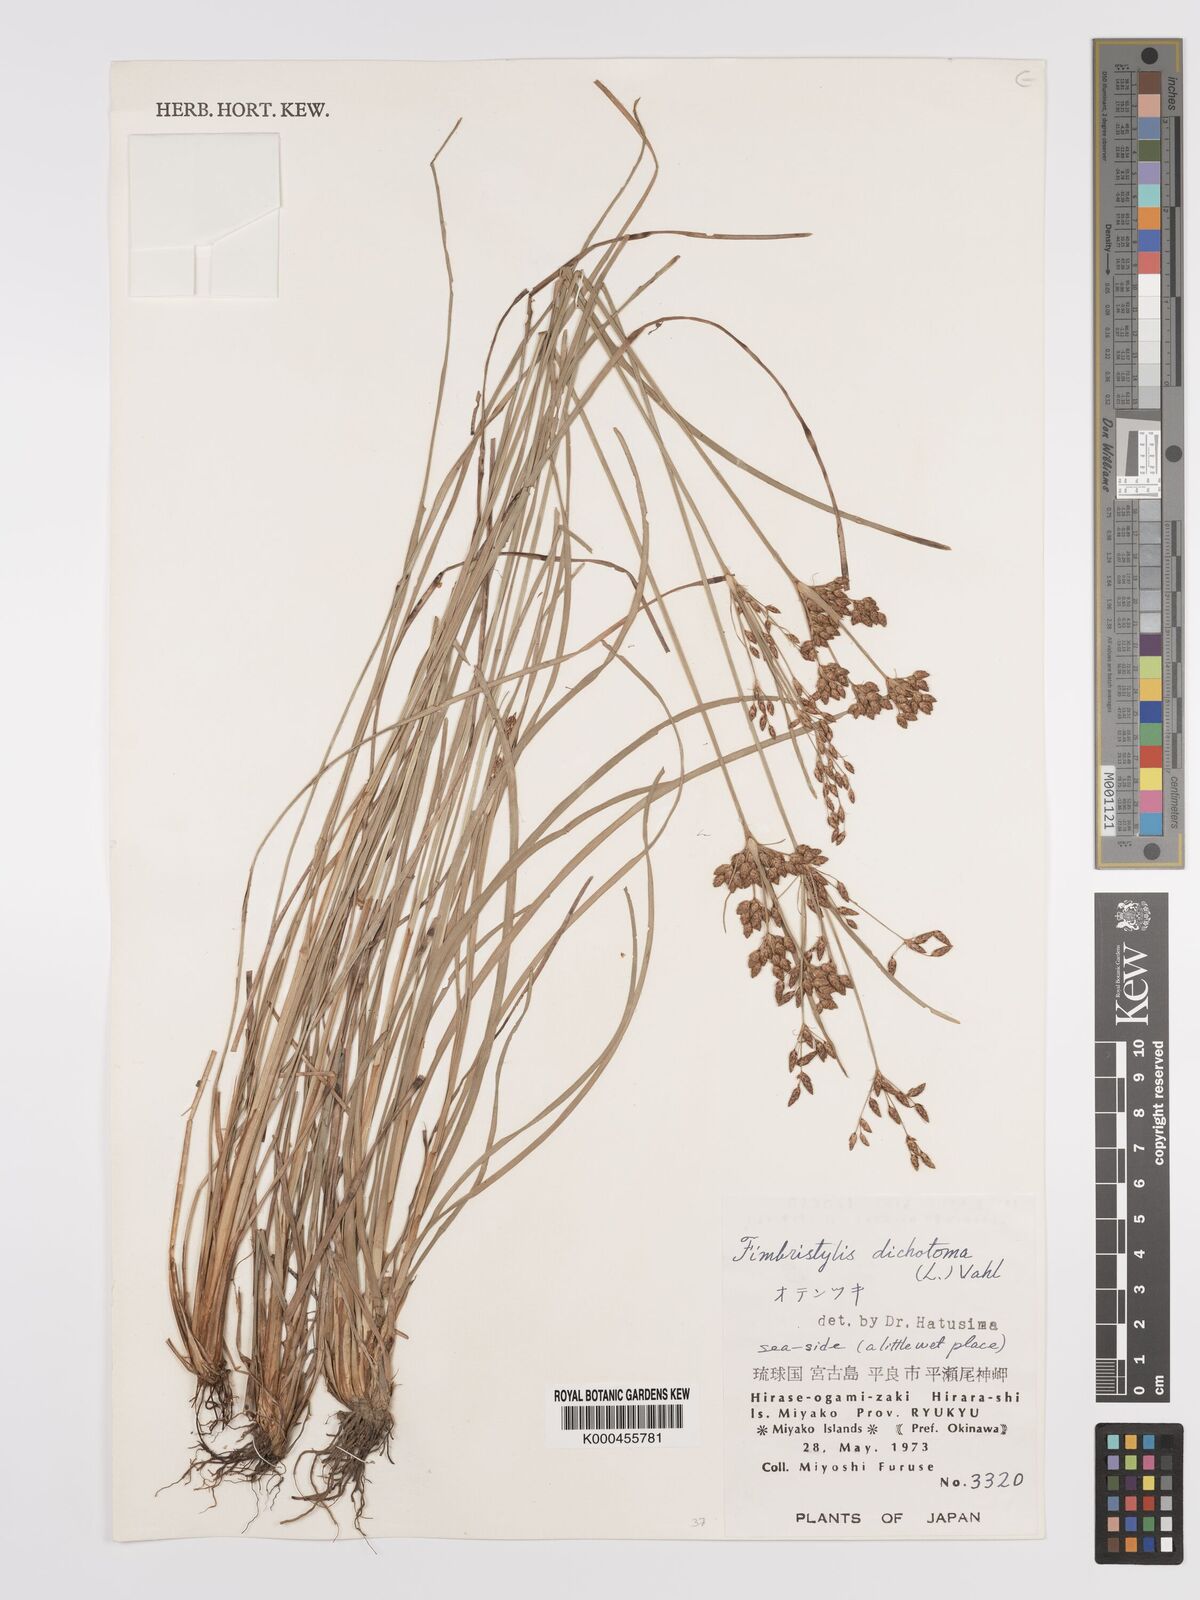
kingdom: Plantae
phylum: Tracheophyta
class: Liliopsida
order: Poales
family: Cyperaceae
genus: Fimbristylis
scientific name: Fimbristylis dichotoma
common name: Forked fimbry
